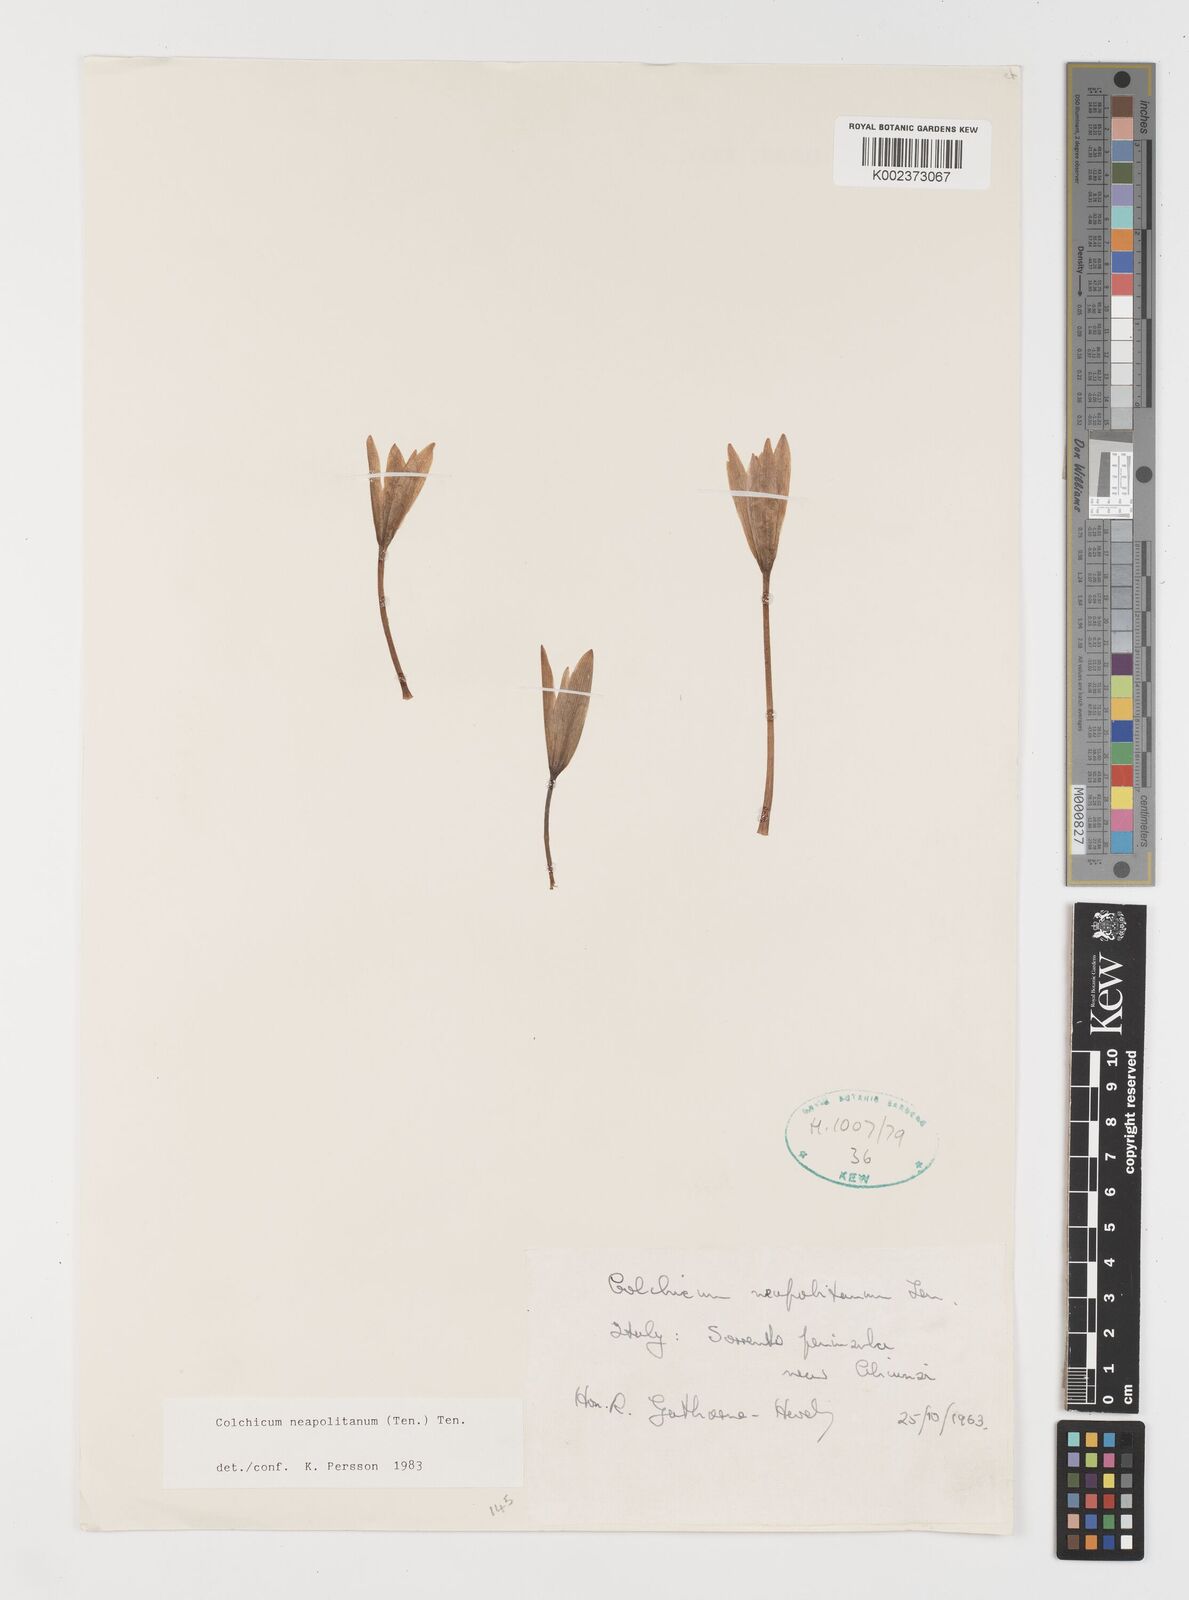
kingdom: Plantae
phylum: Tracheophyta
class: Liliopsida
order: Liliales
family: Colchicaceae
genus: Colchicum
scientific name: Colchicum neapolitanum
